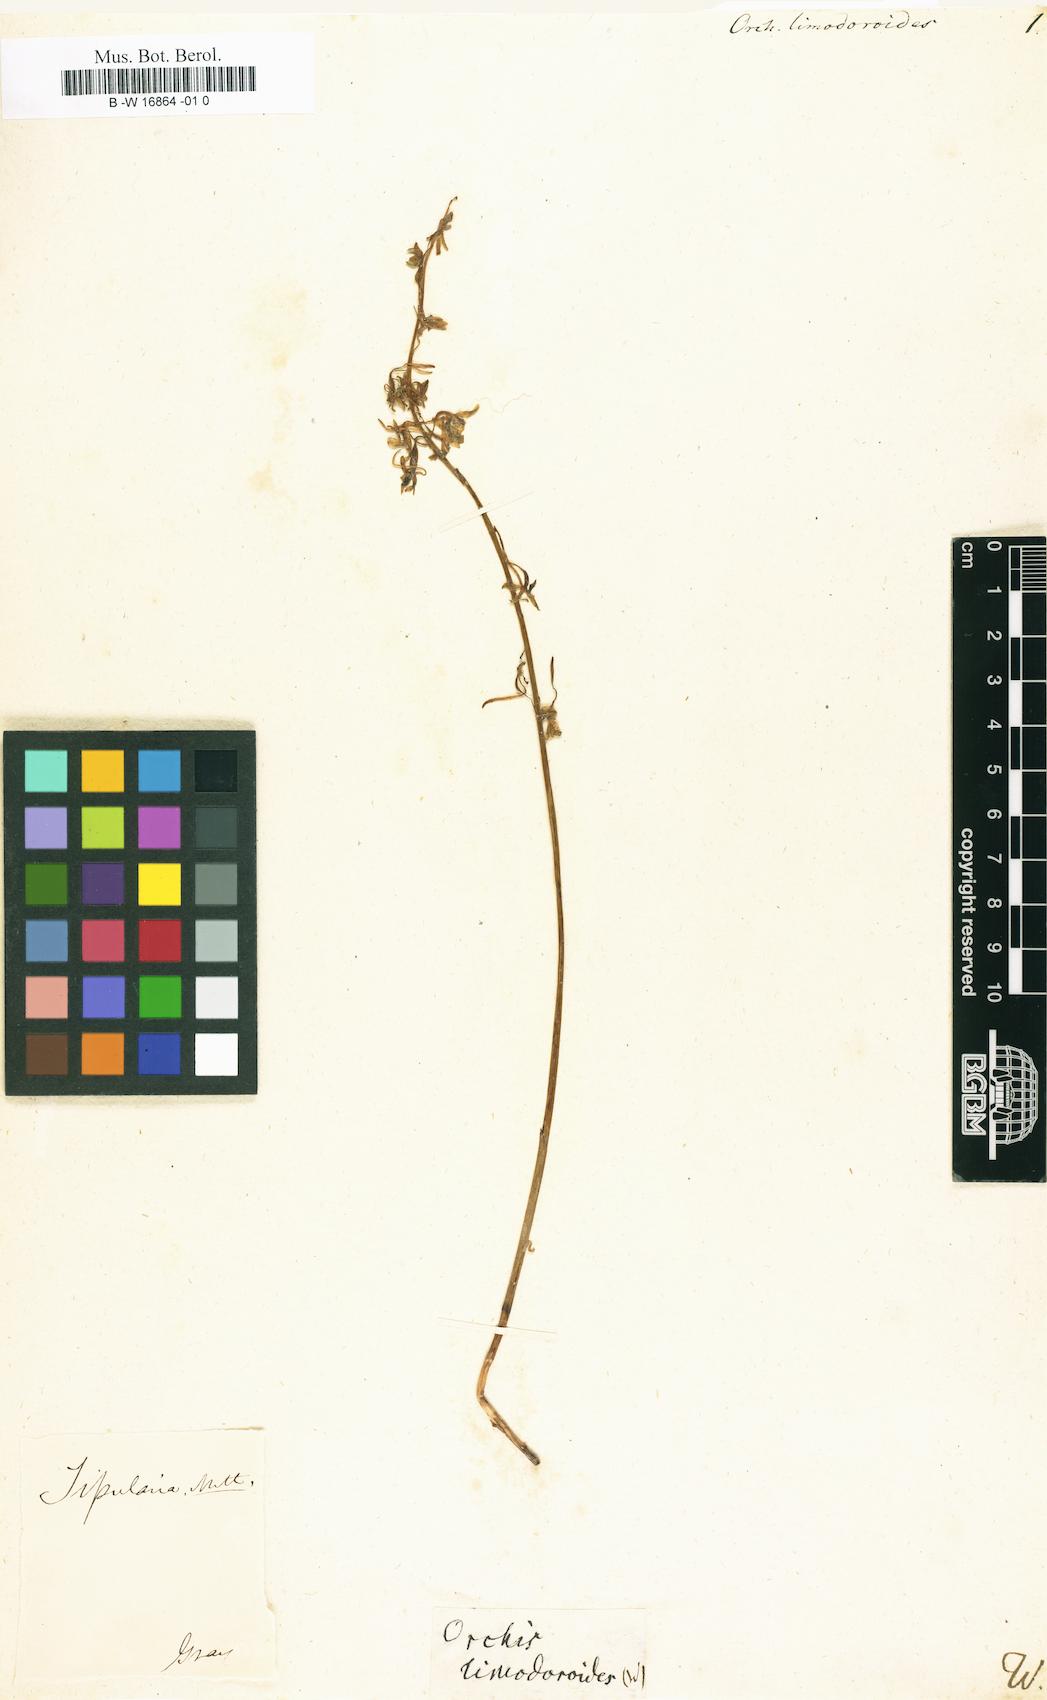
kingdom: Plantae
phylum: Tracheophyta
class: Liliopsida
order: Asparagales
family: Orchidaceae
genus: Orchis
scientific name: Orchis
